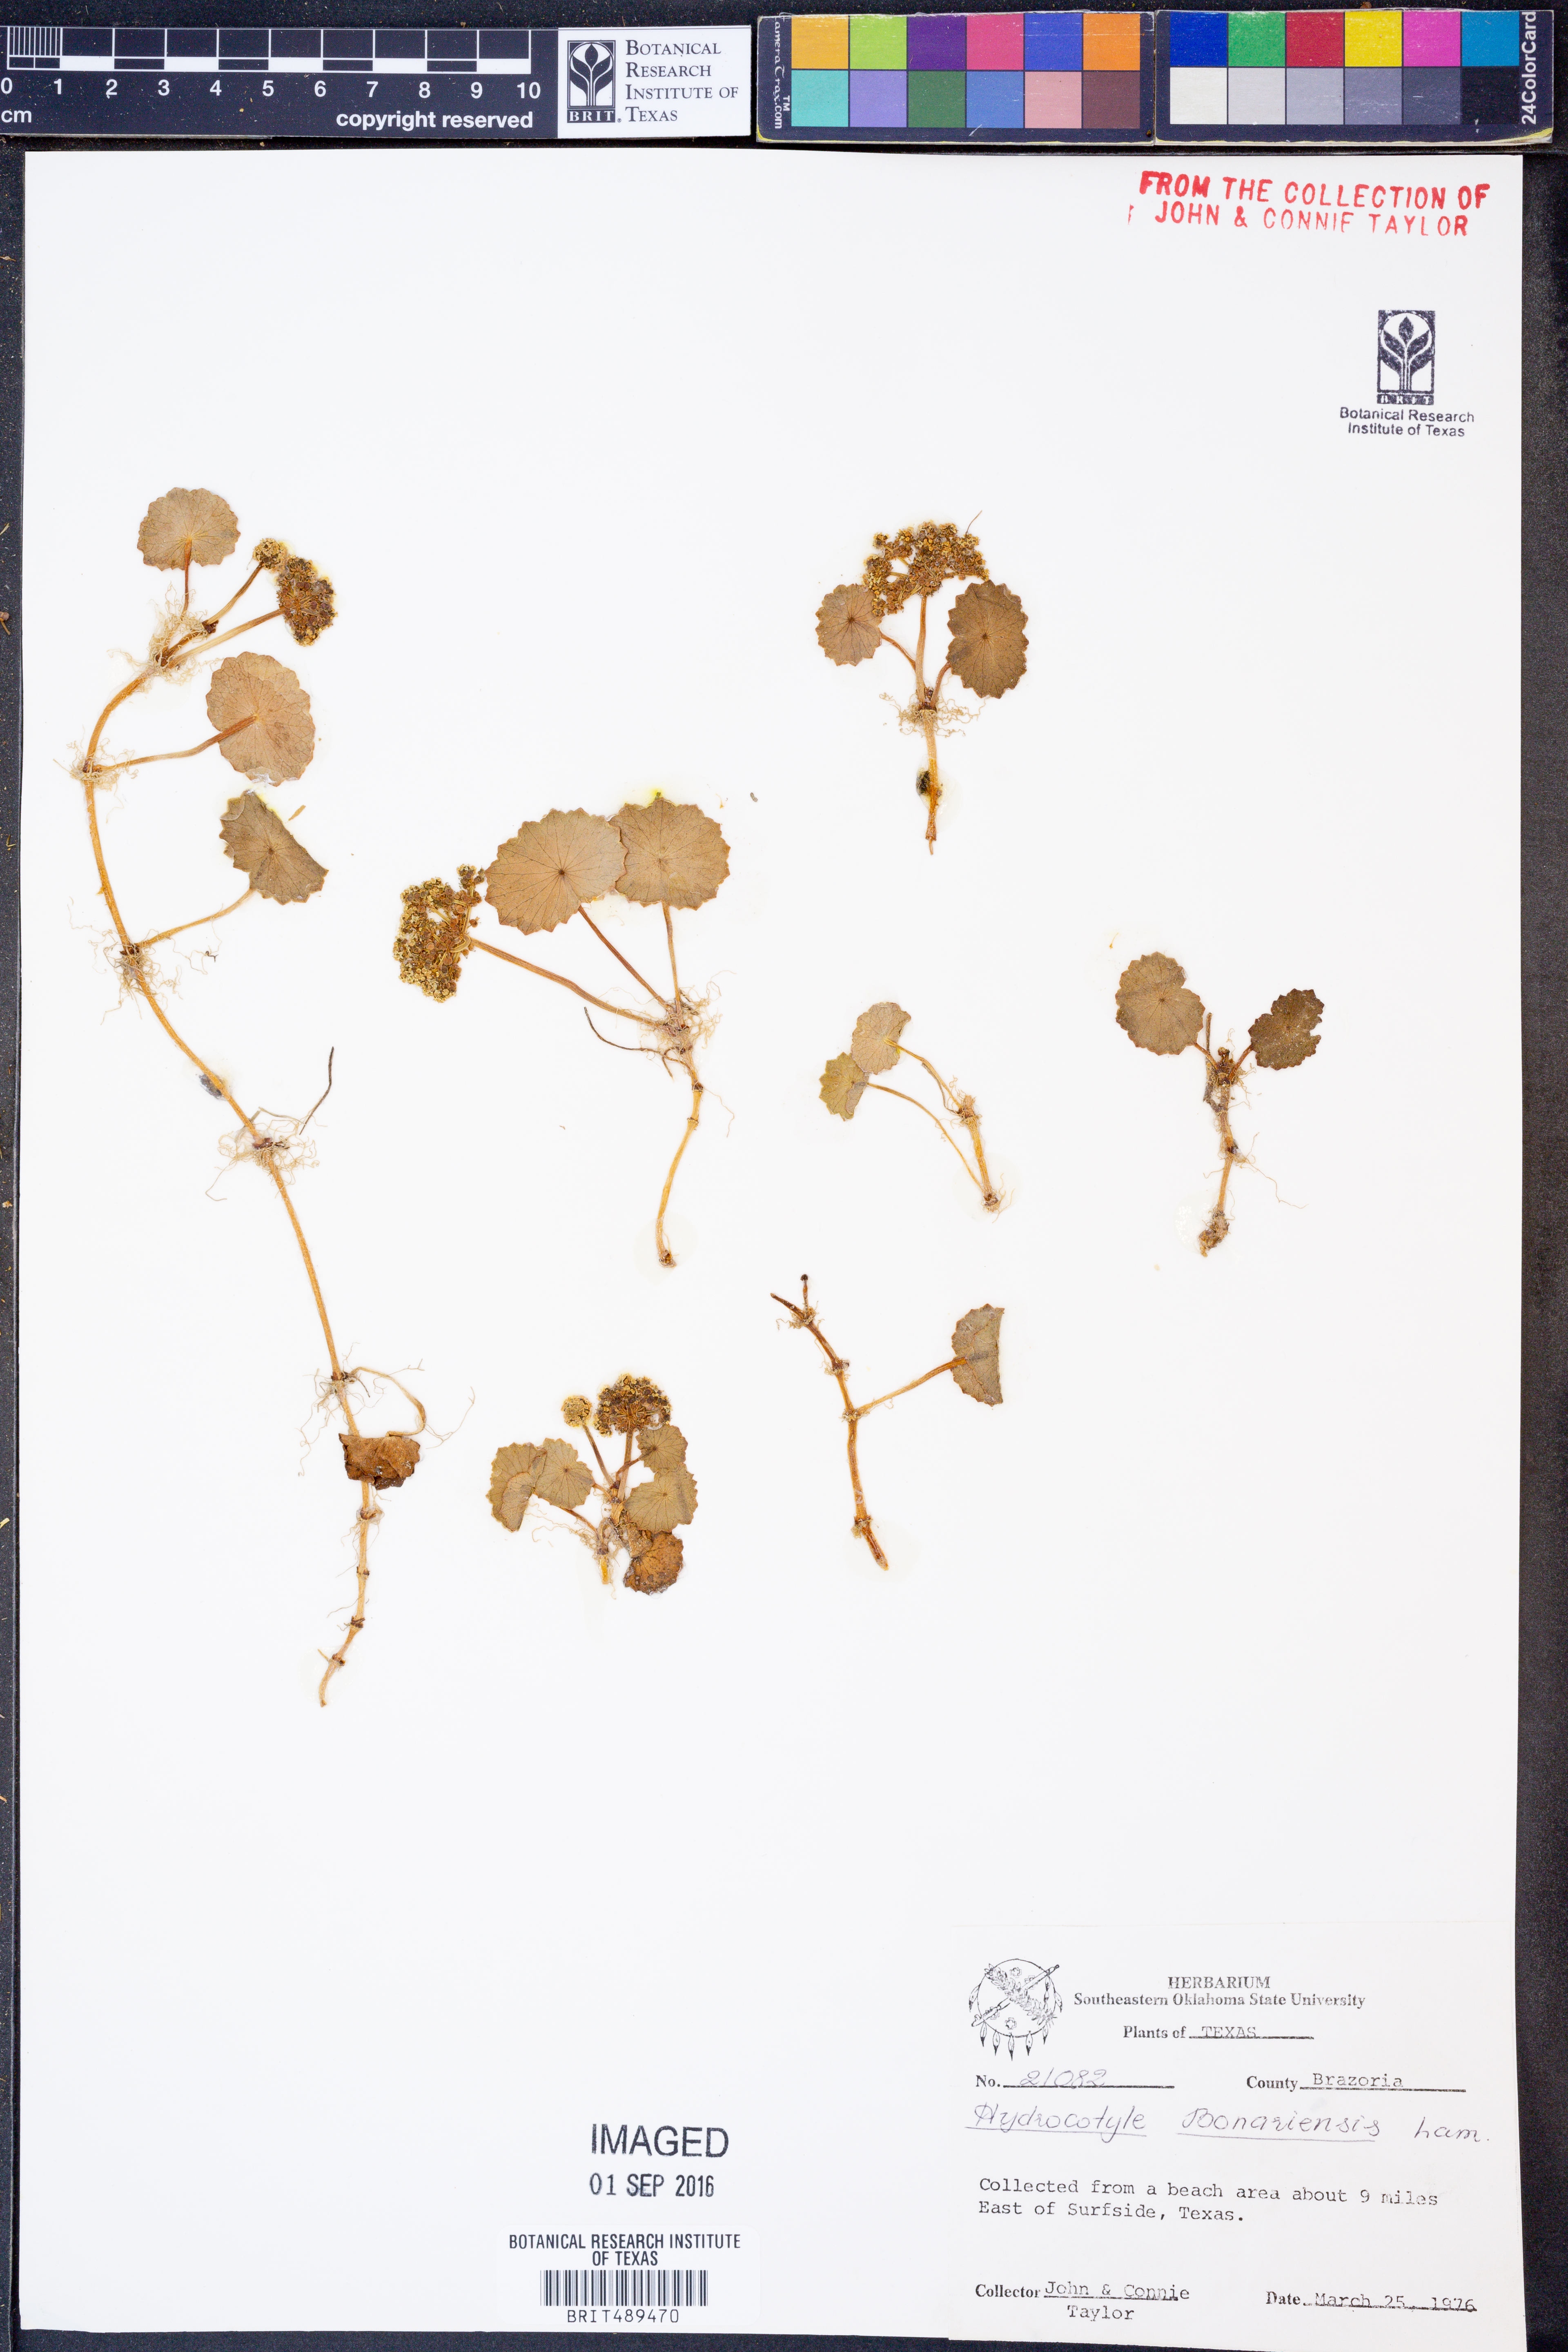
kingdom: Plantae
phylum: Tracheophyta
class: Magnoliopsida
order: Apiales
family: Araliaceae
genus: Hydrocotyle
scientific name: Hydrocotyle bonariensis
